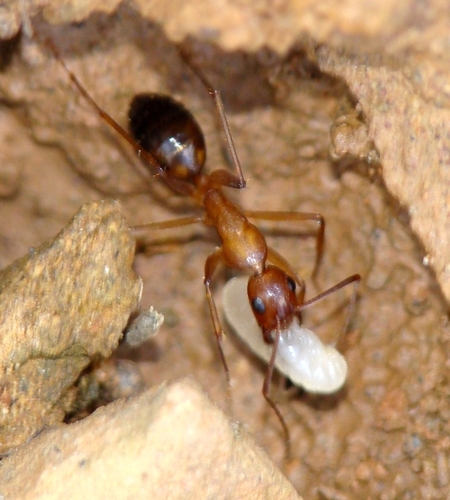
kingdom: Animalia
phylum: Arthropoda
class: Insecta
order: Hymenoptera
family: Formicidae
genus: Camponotus
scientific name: Camponotus barbaricus
